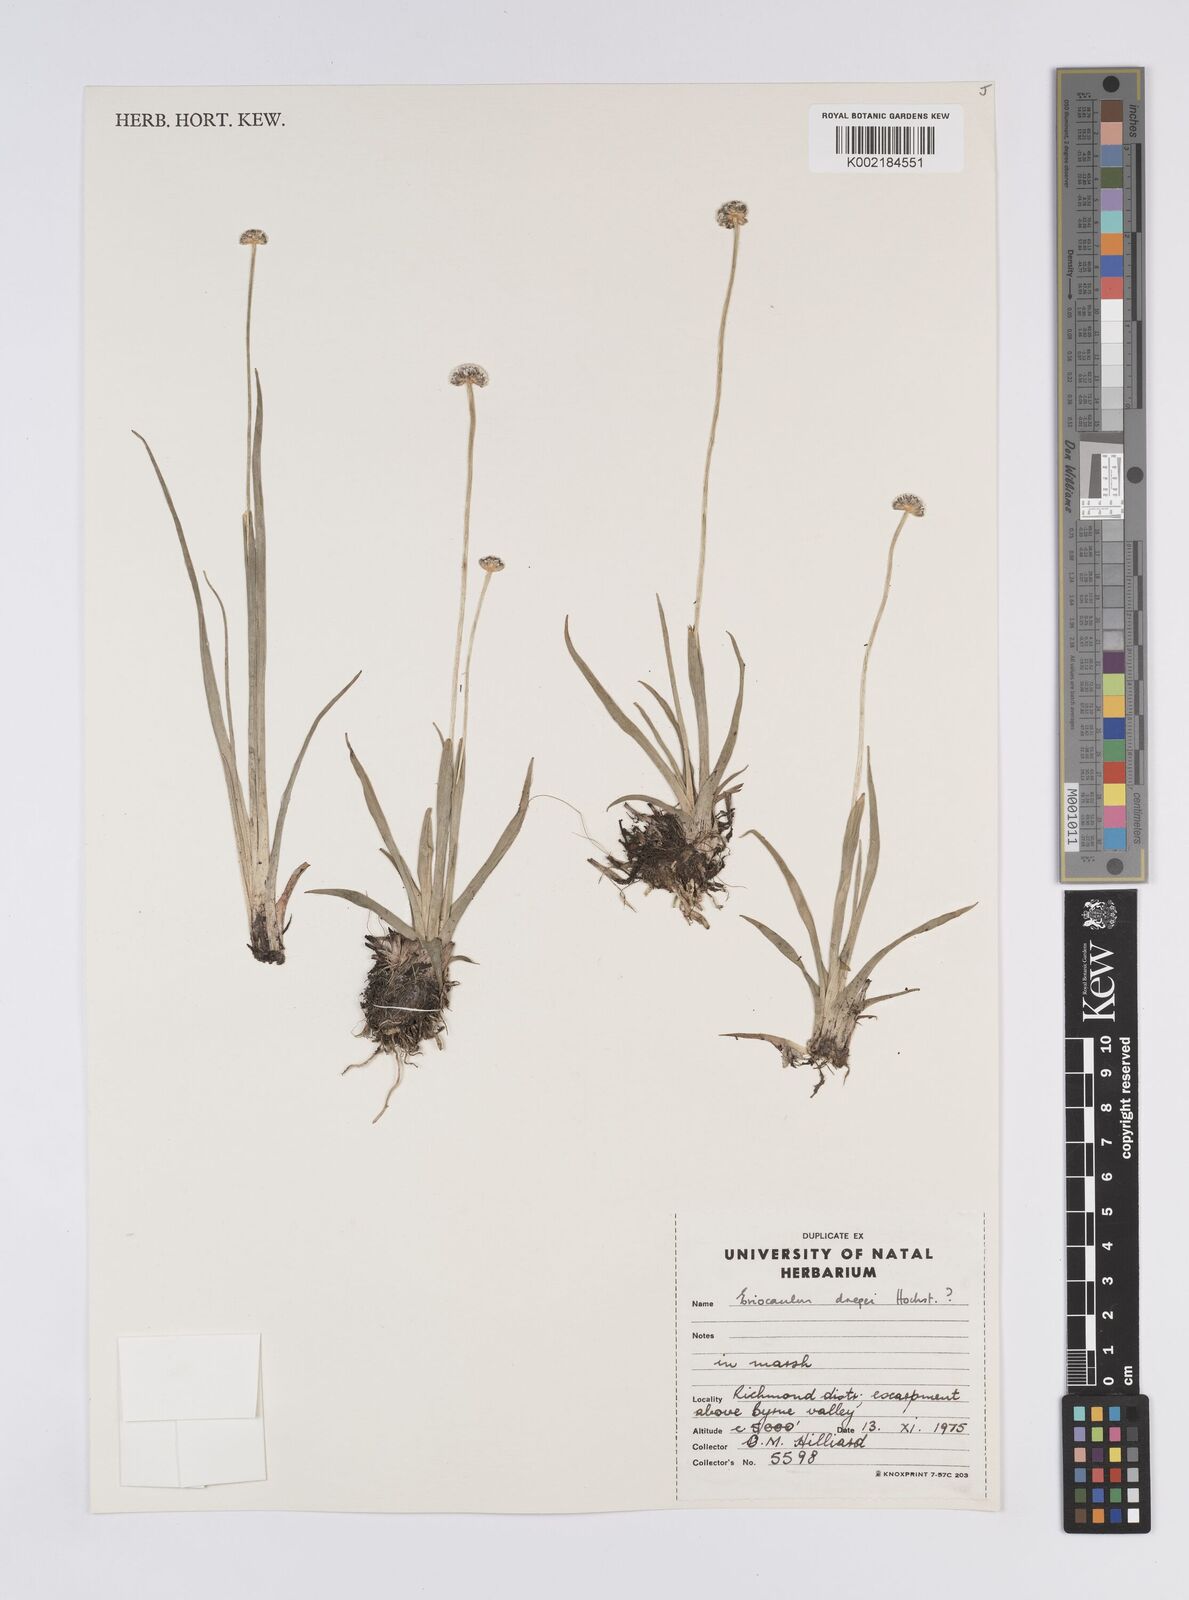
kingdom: Plantae
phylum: Tracheophyta
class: Liliopsida
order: Poales
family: Eriocaulaceae
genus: Eriocaulon
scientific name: Eriocaulon dregei
